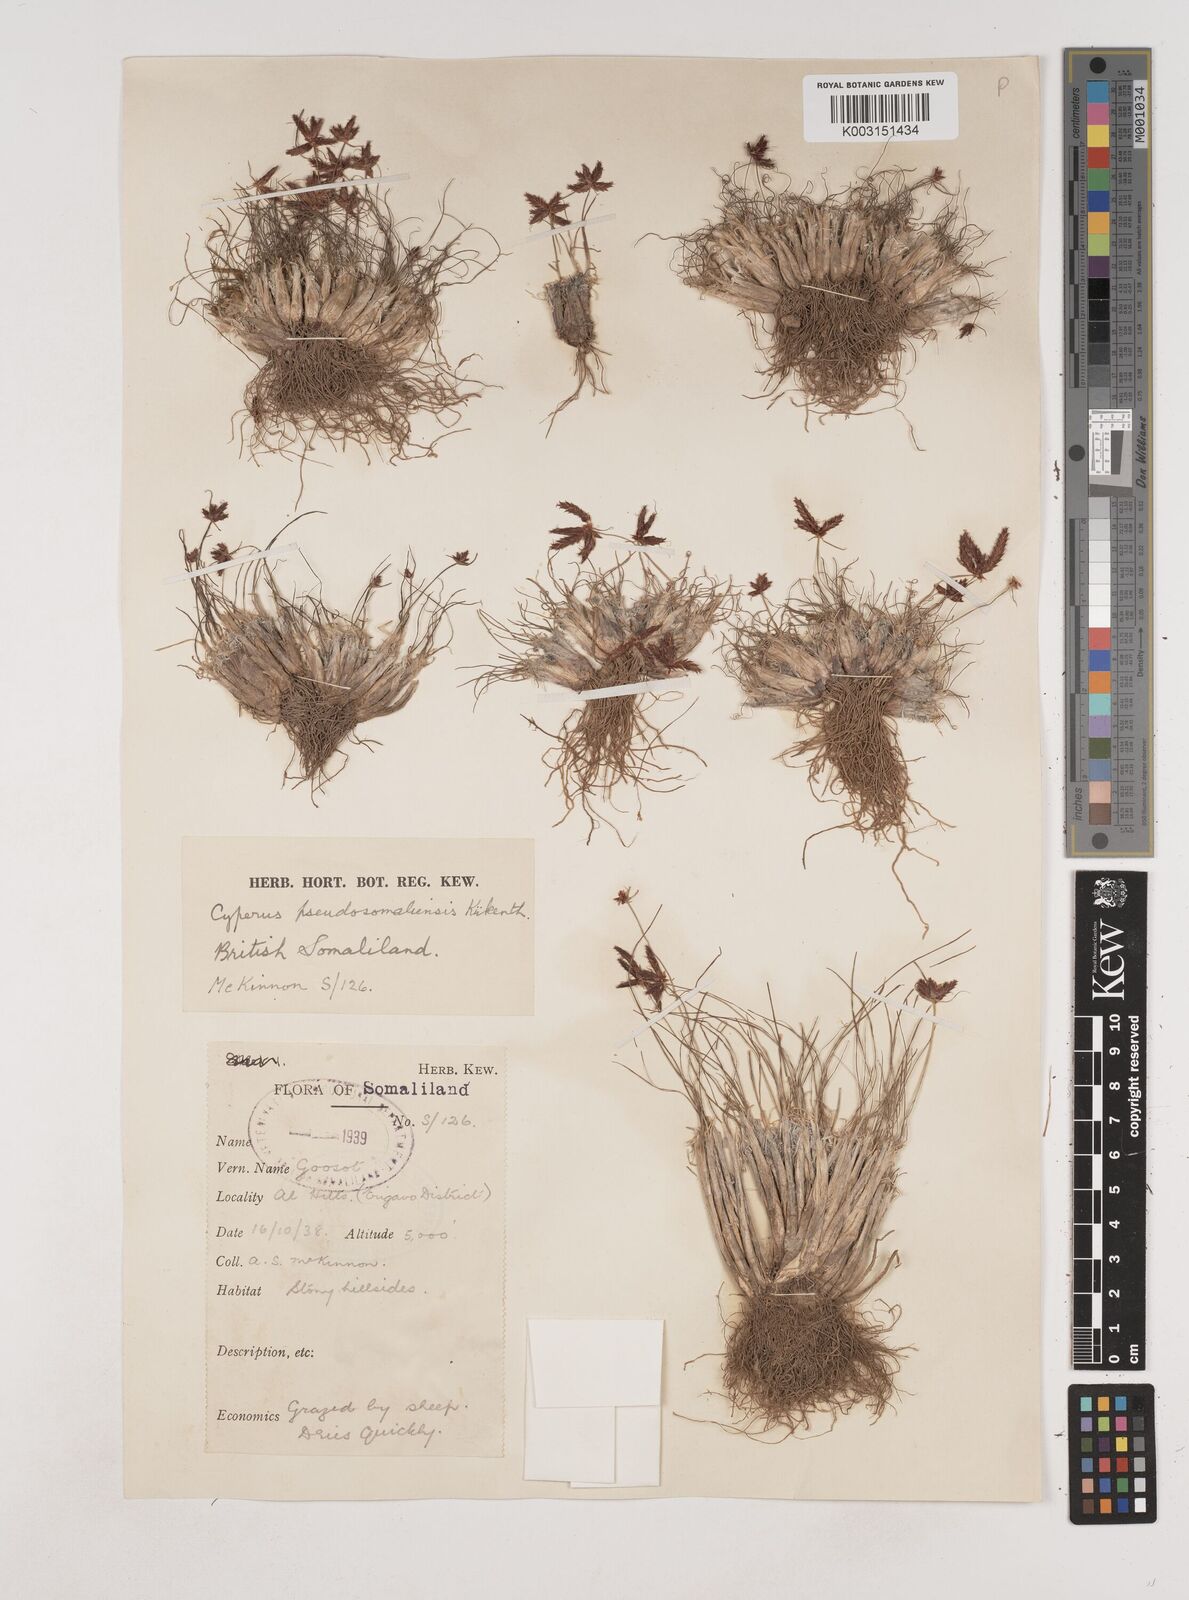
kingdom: Plantae
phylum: Tracheophyta
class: Liliopsida
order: Poales
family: Cyperaceae
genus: Cyperus
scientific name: Cyperus pseudosomaliensis
